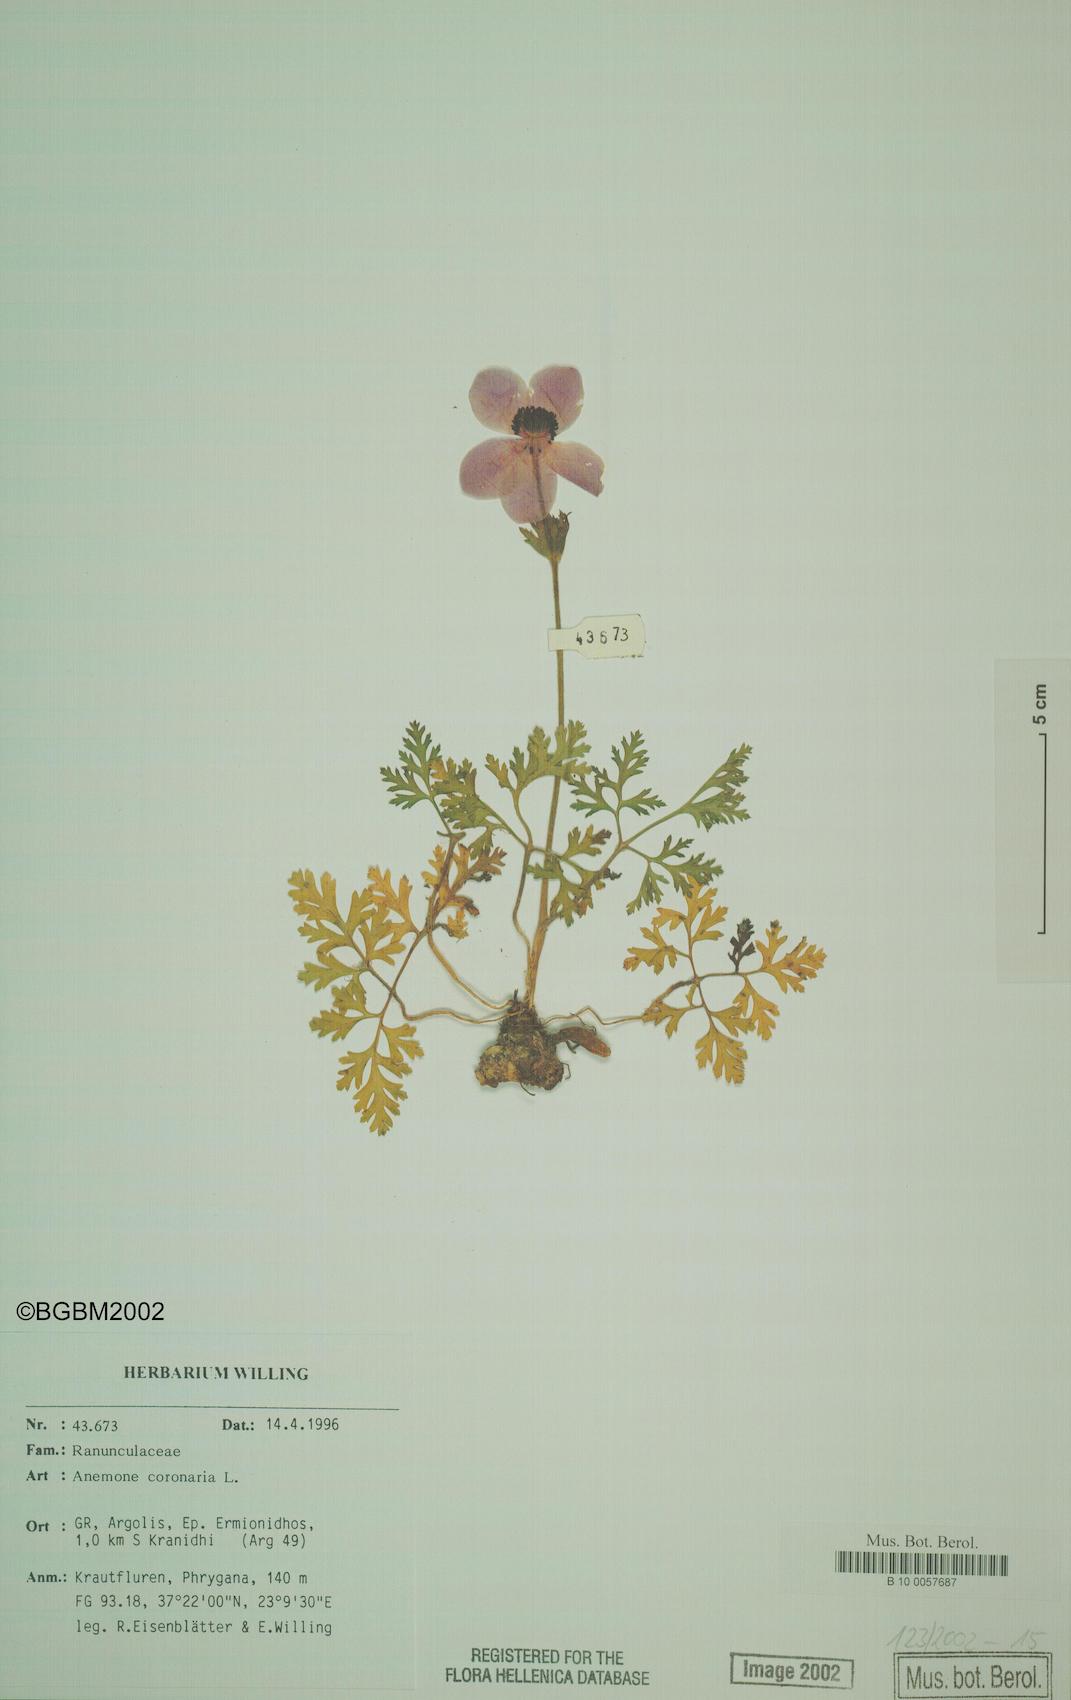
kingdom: Plantae
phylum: Tracheophyta
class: Magnoliopsida
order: Ranunculales
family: Ranunculaceae
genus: Anemone
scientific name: Anemone coronaria
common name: Poppy anemone
